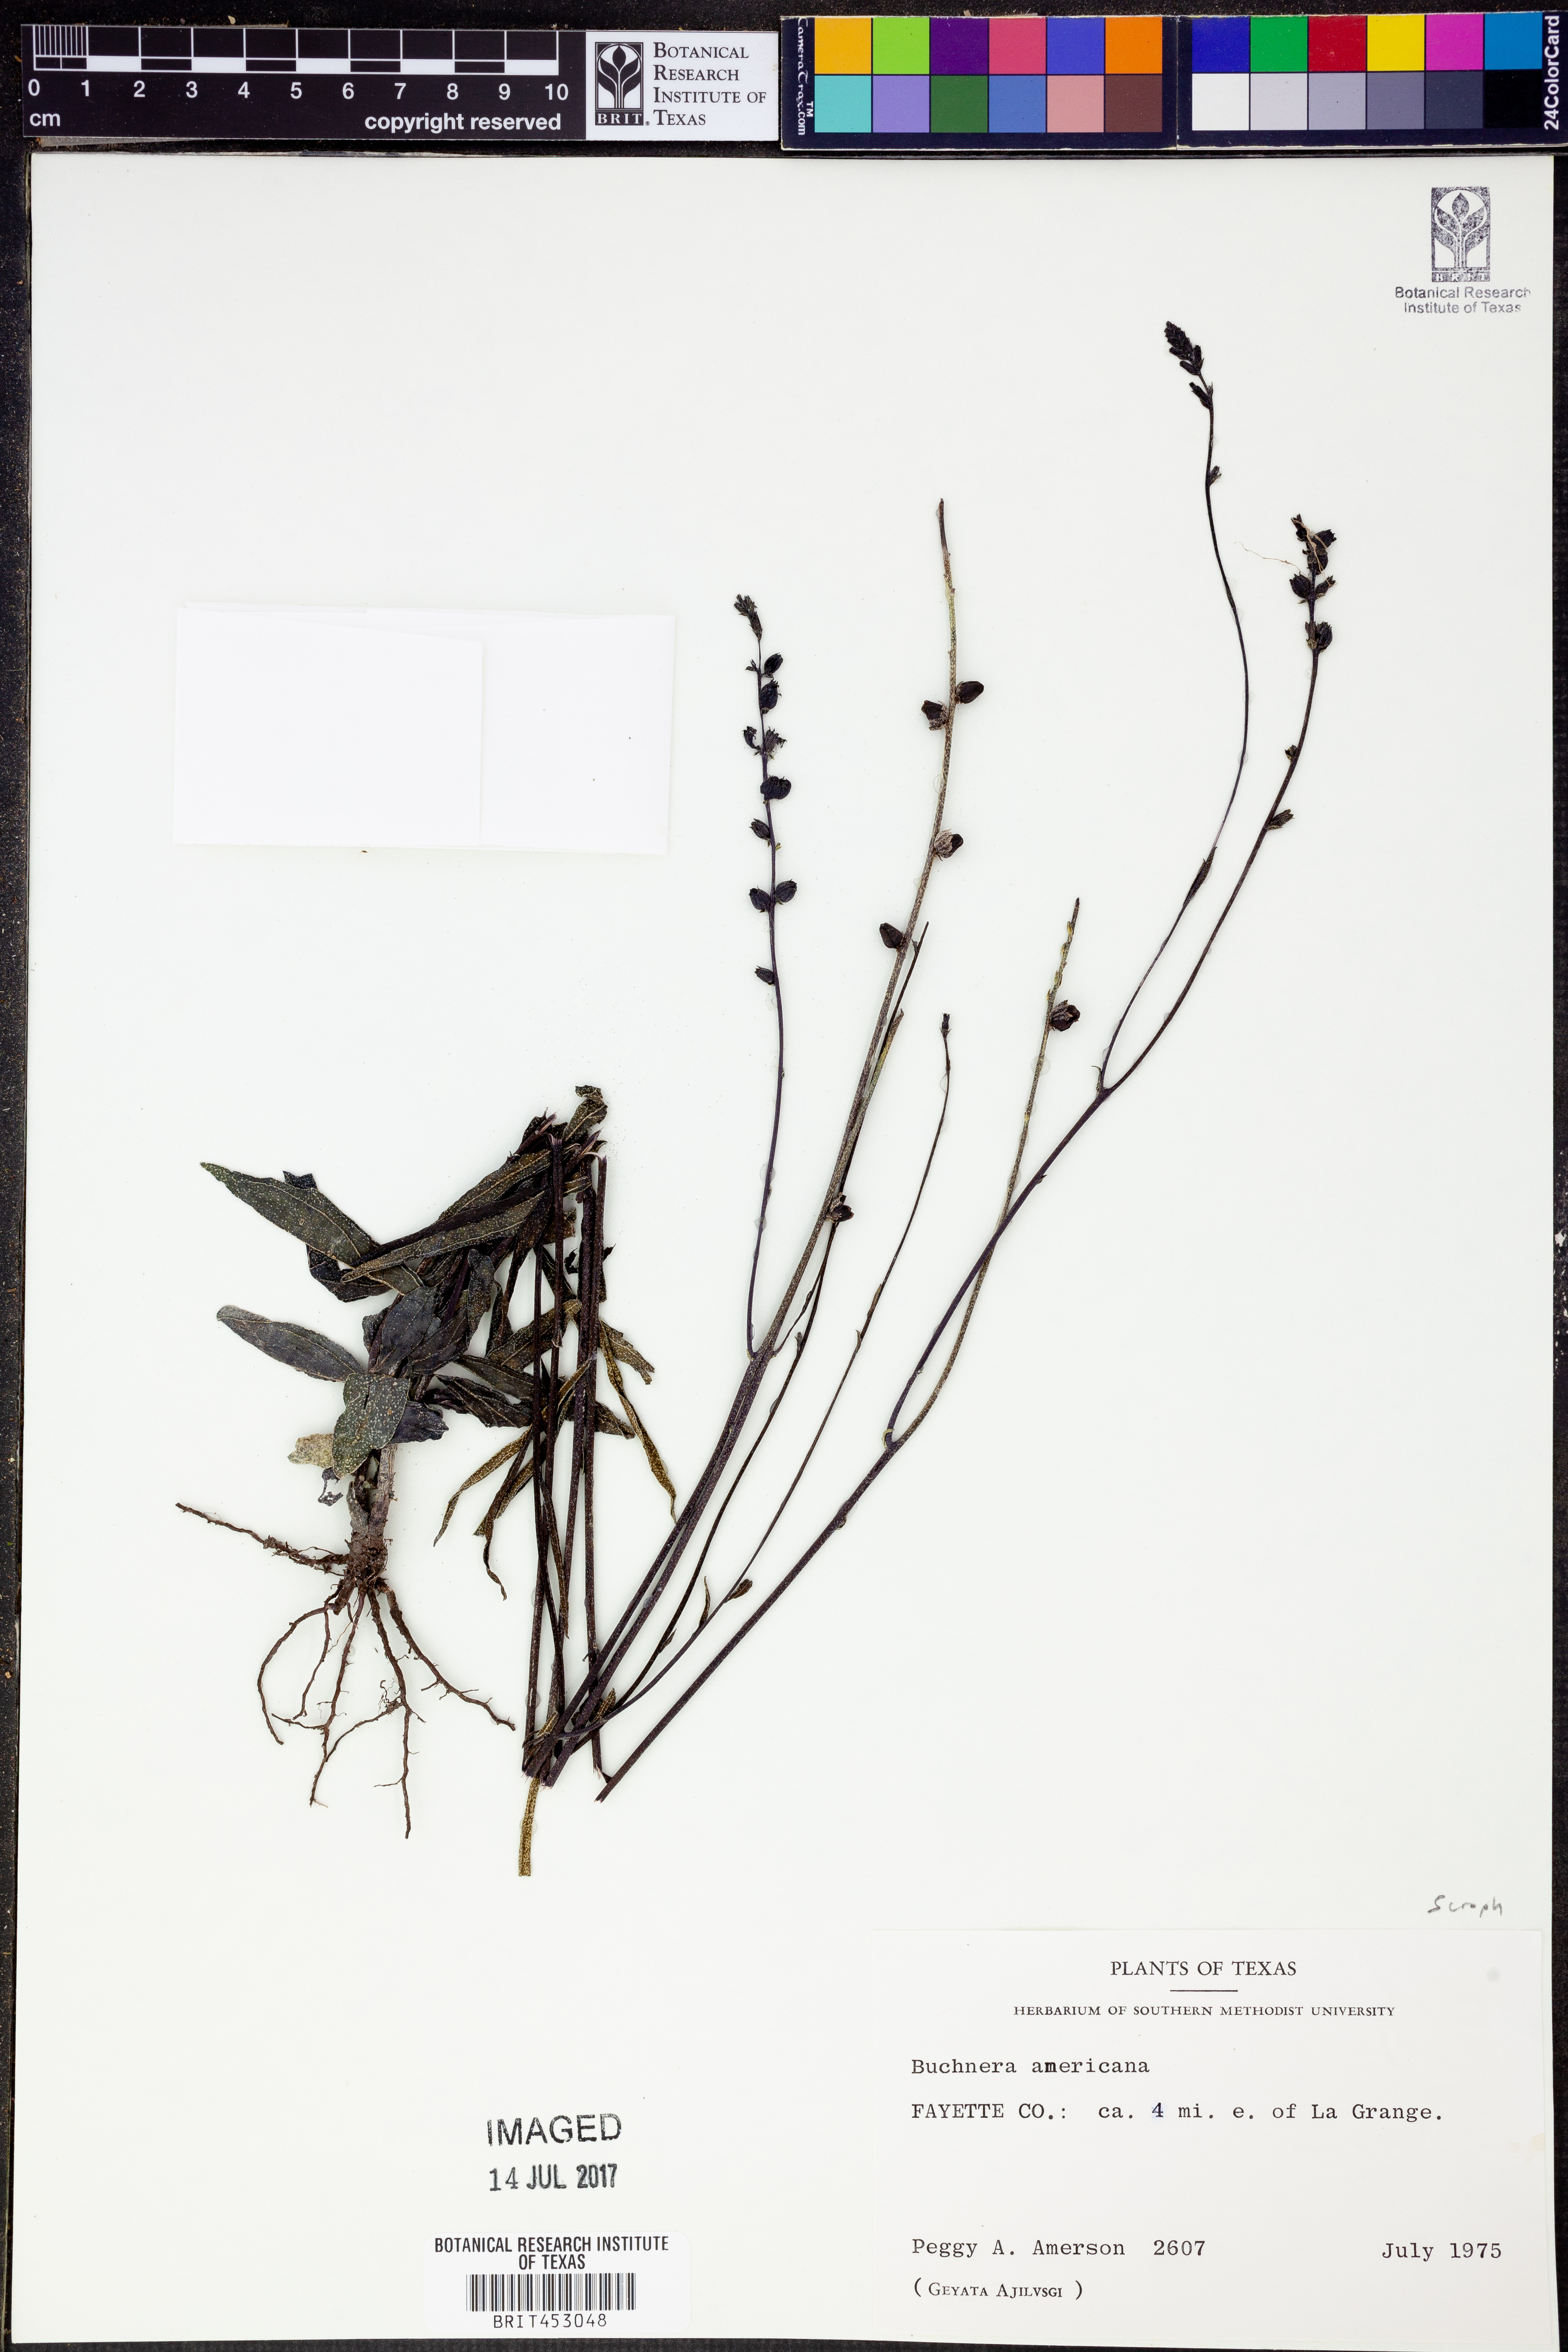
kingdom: Plantae
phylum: Tracheophyta
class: Magnoliopsida
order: Lamiales
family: Orobanchaceae
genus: Buchnera
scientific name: Buchnera americana
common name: American bluehearts
